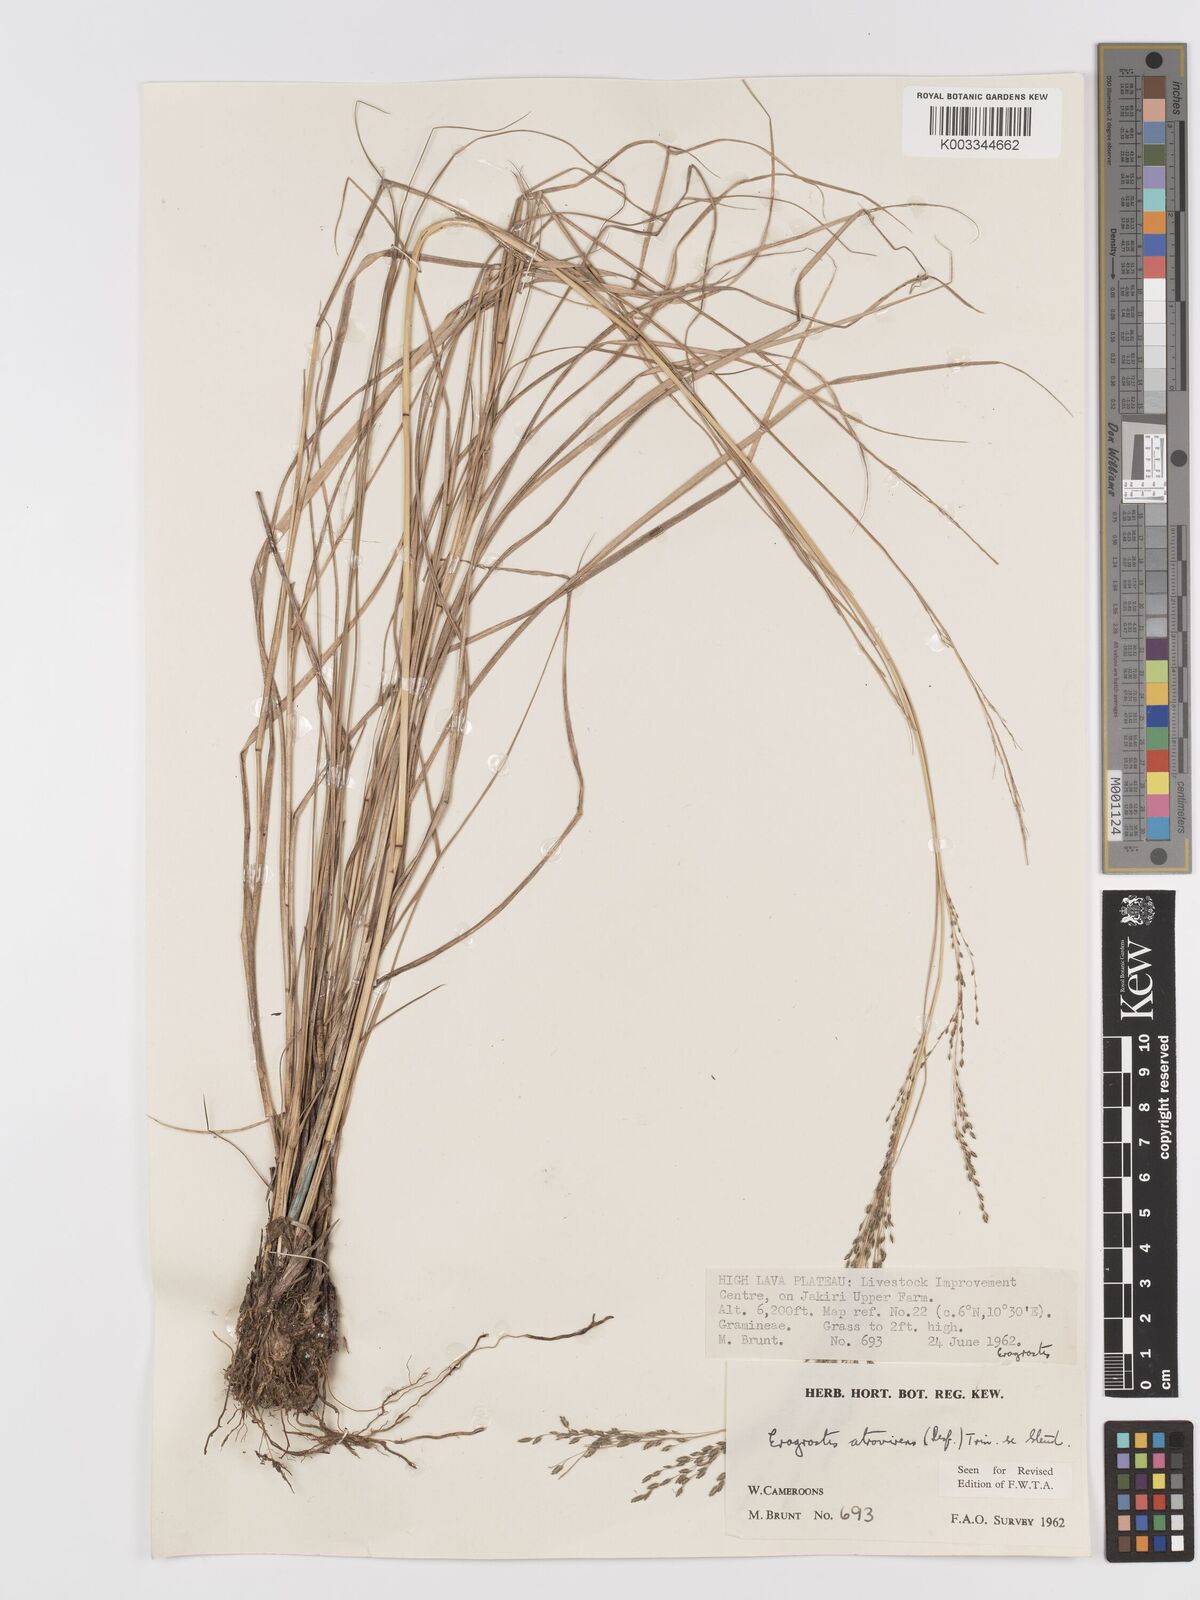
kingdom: Plantae
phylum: Tracheophyta
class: Liliopsida
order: Poales
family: Poaceae
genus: Eragrostis
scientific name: Eragrostis atrovirens
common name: Thalia lovegrass
